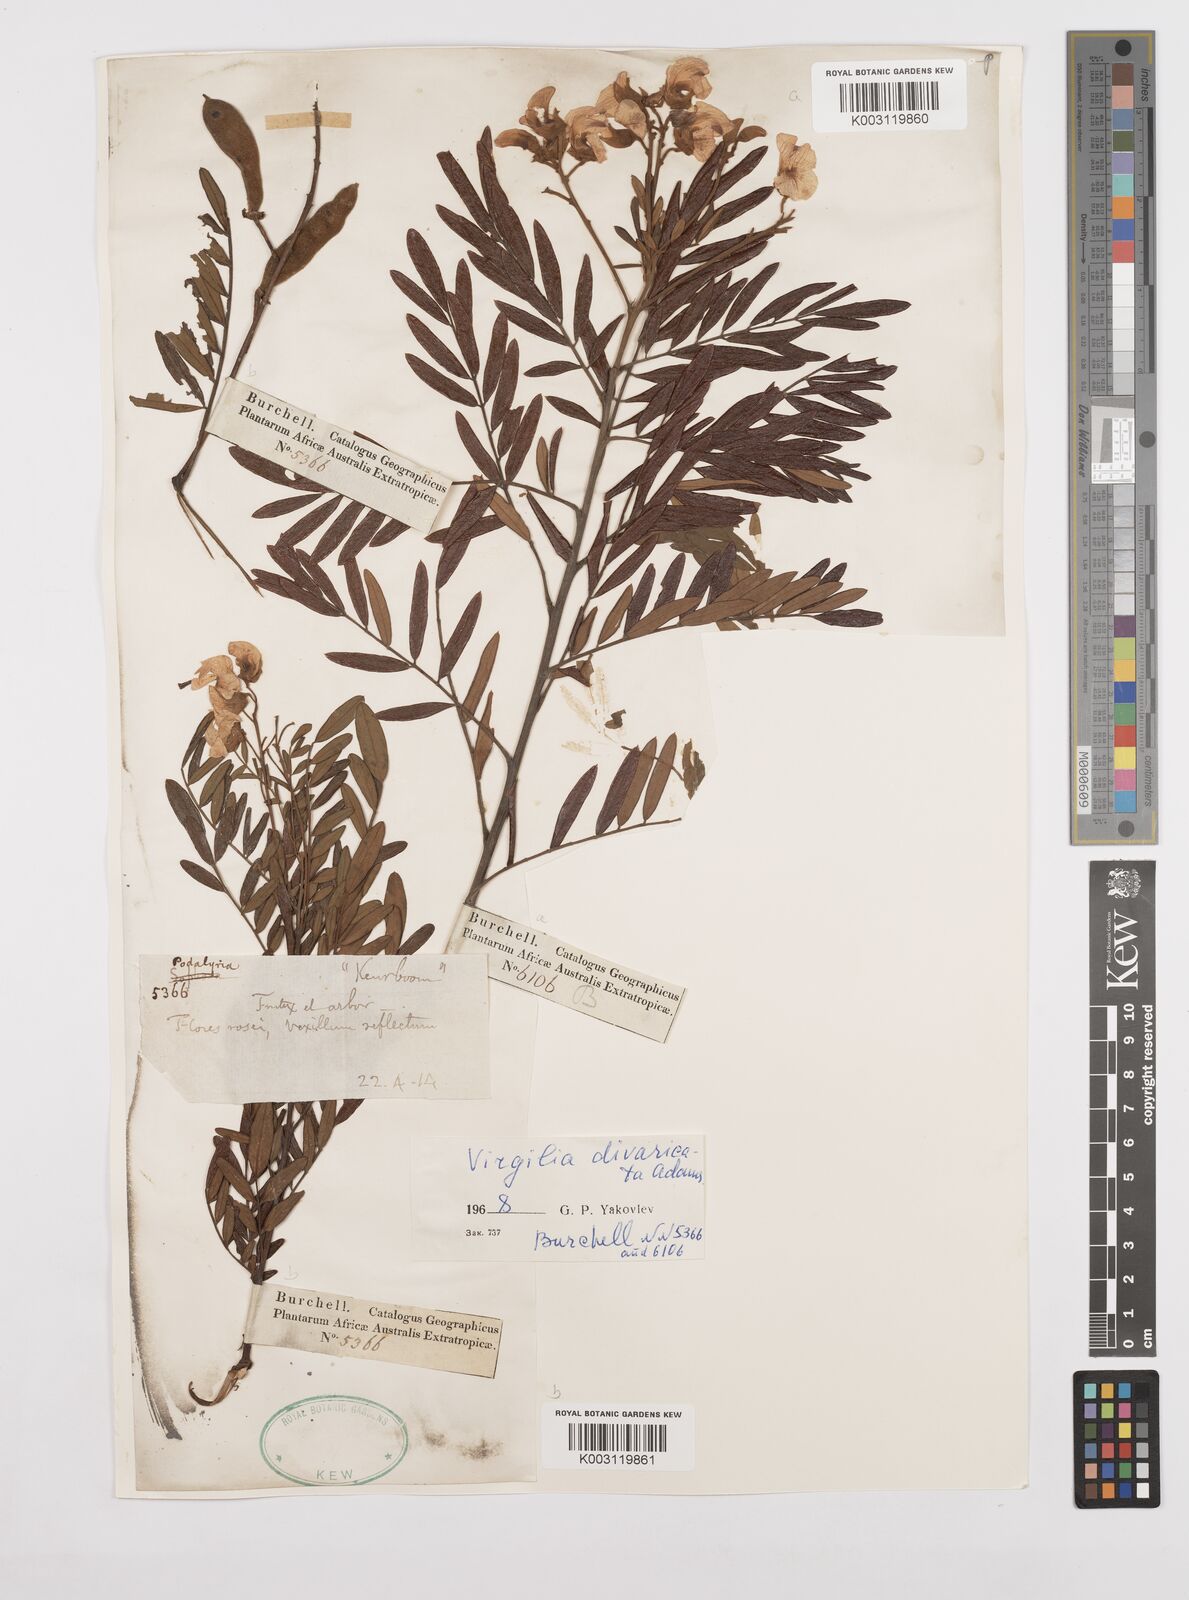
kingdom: Plantae
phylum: Tracheophyta
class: Magnoliopsida
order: Fabales
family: Fabaceae
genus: Virgilia
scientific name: Virgilia divaricata
